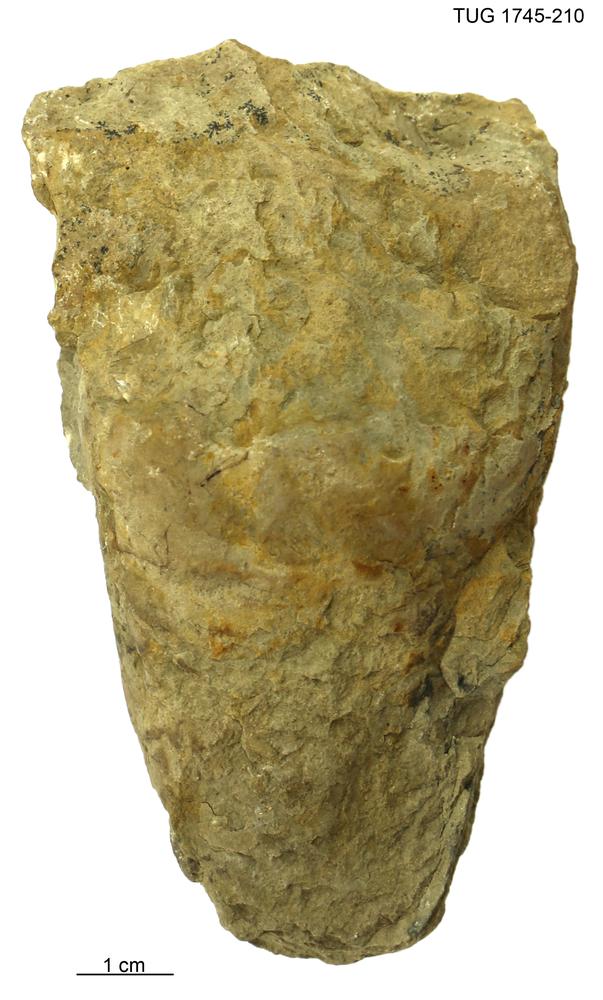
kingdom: Animalia
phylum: Mollusca
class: Cephalopoda
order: Orthocerida
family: Orthoceratidae
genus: Orthoceras
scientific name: Orthoceras
